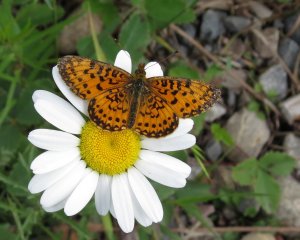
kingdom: Animalia
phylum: Arthropoda
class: Insecta
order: Lepidoptera
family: Nymphalidae
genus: Boloria
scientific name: Boloria selene
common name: Silver-bordered Fritillary
